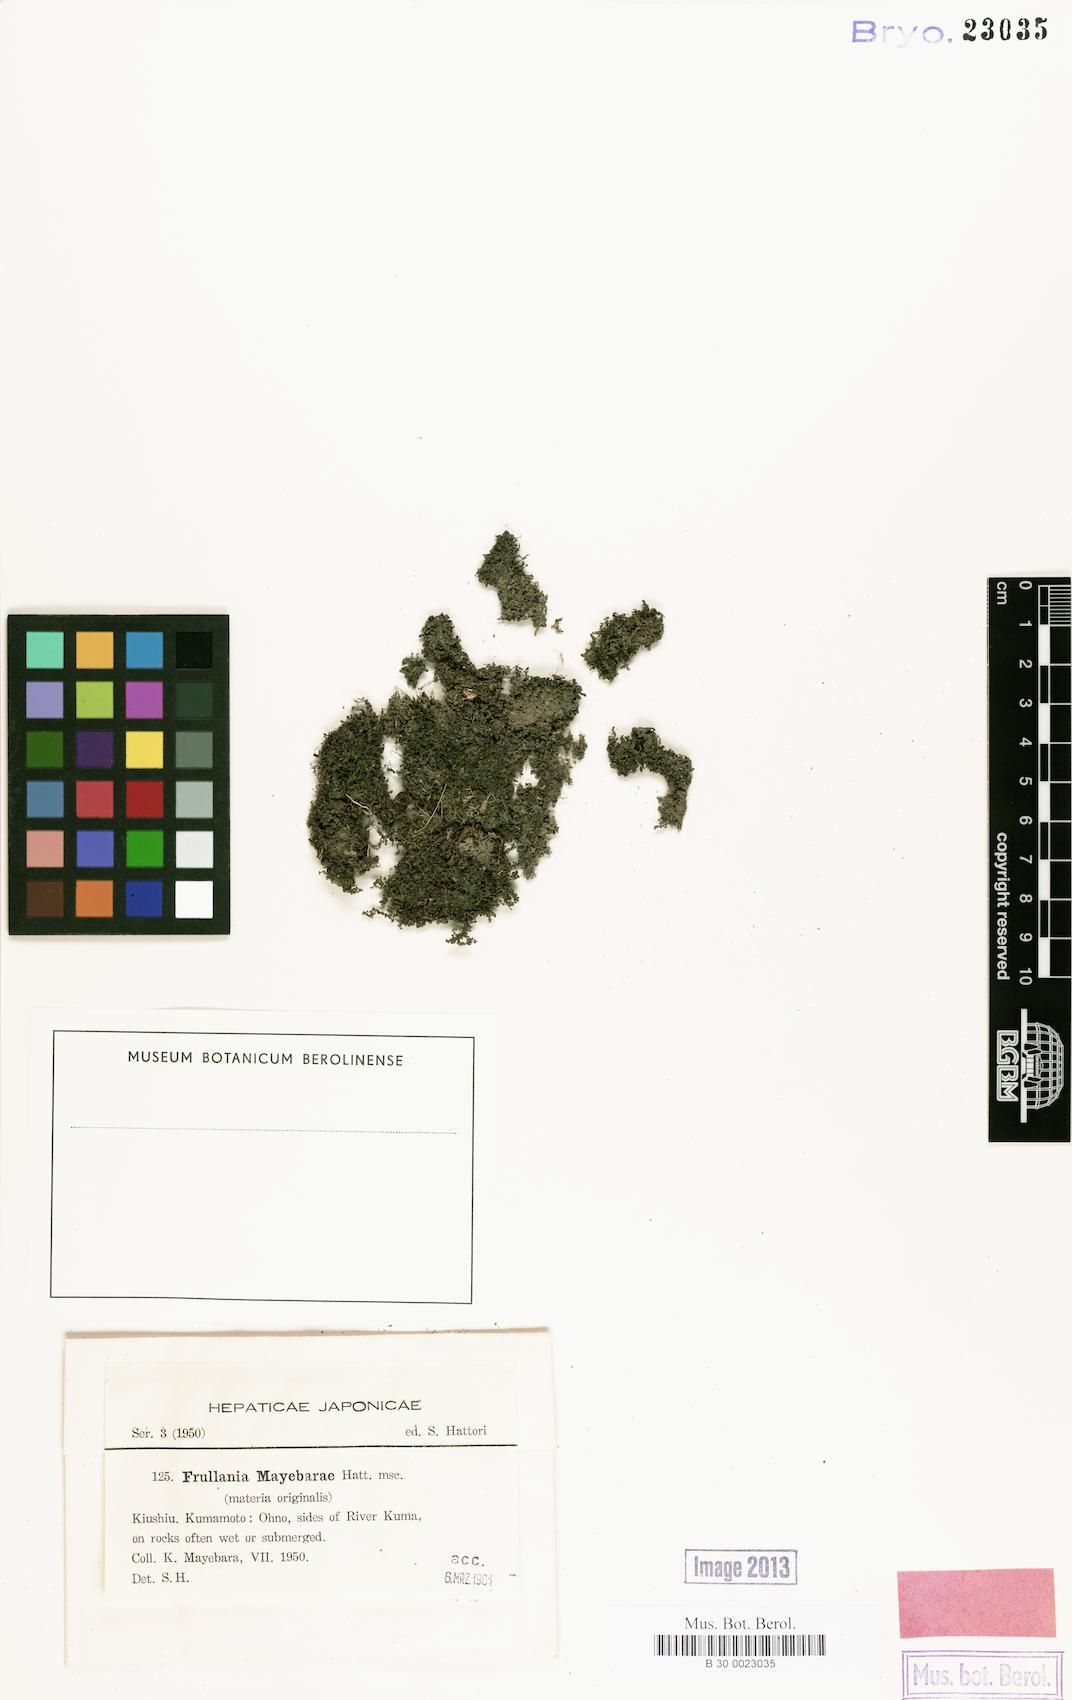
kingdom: Plantae
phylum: Marchantiophyta
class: Jungermanniopsida
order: Porellales
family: Frullaniaceae
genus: Frullania
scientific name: Frullania mayebarae
